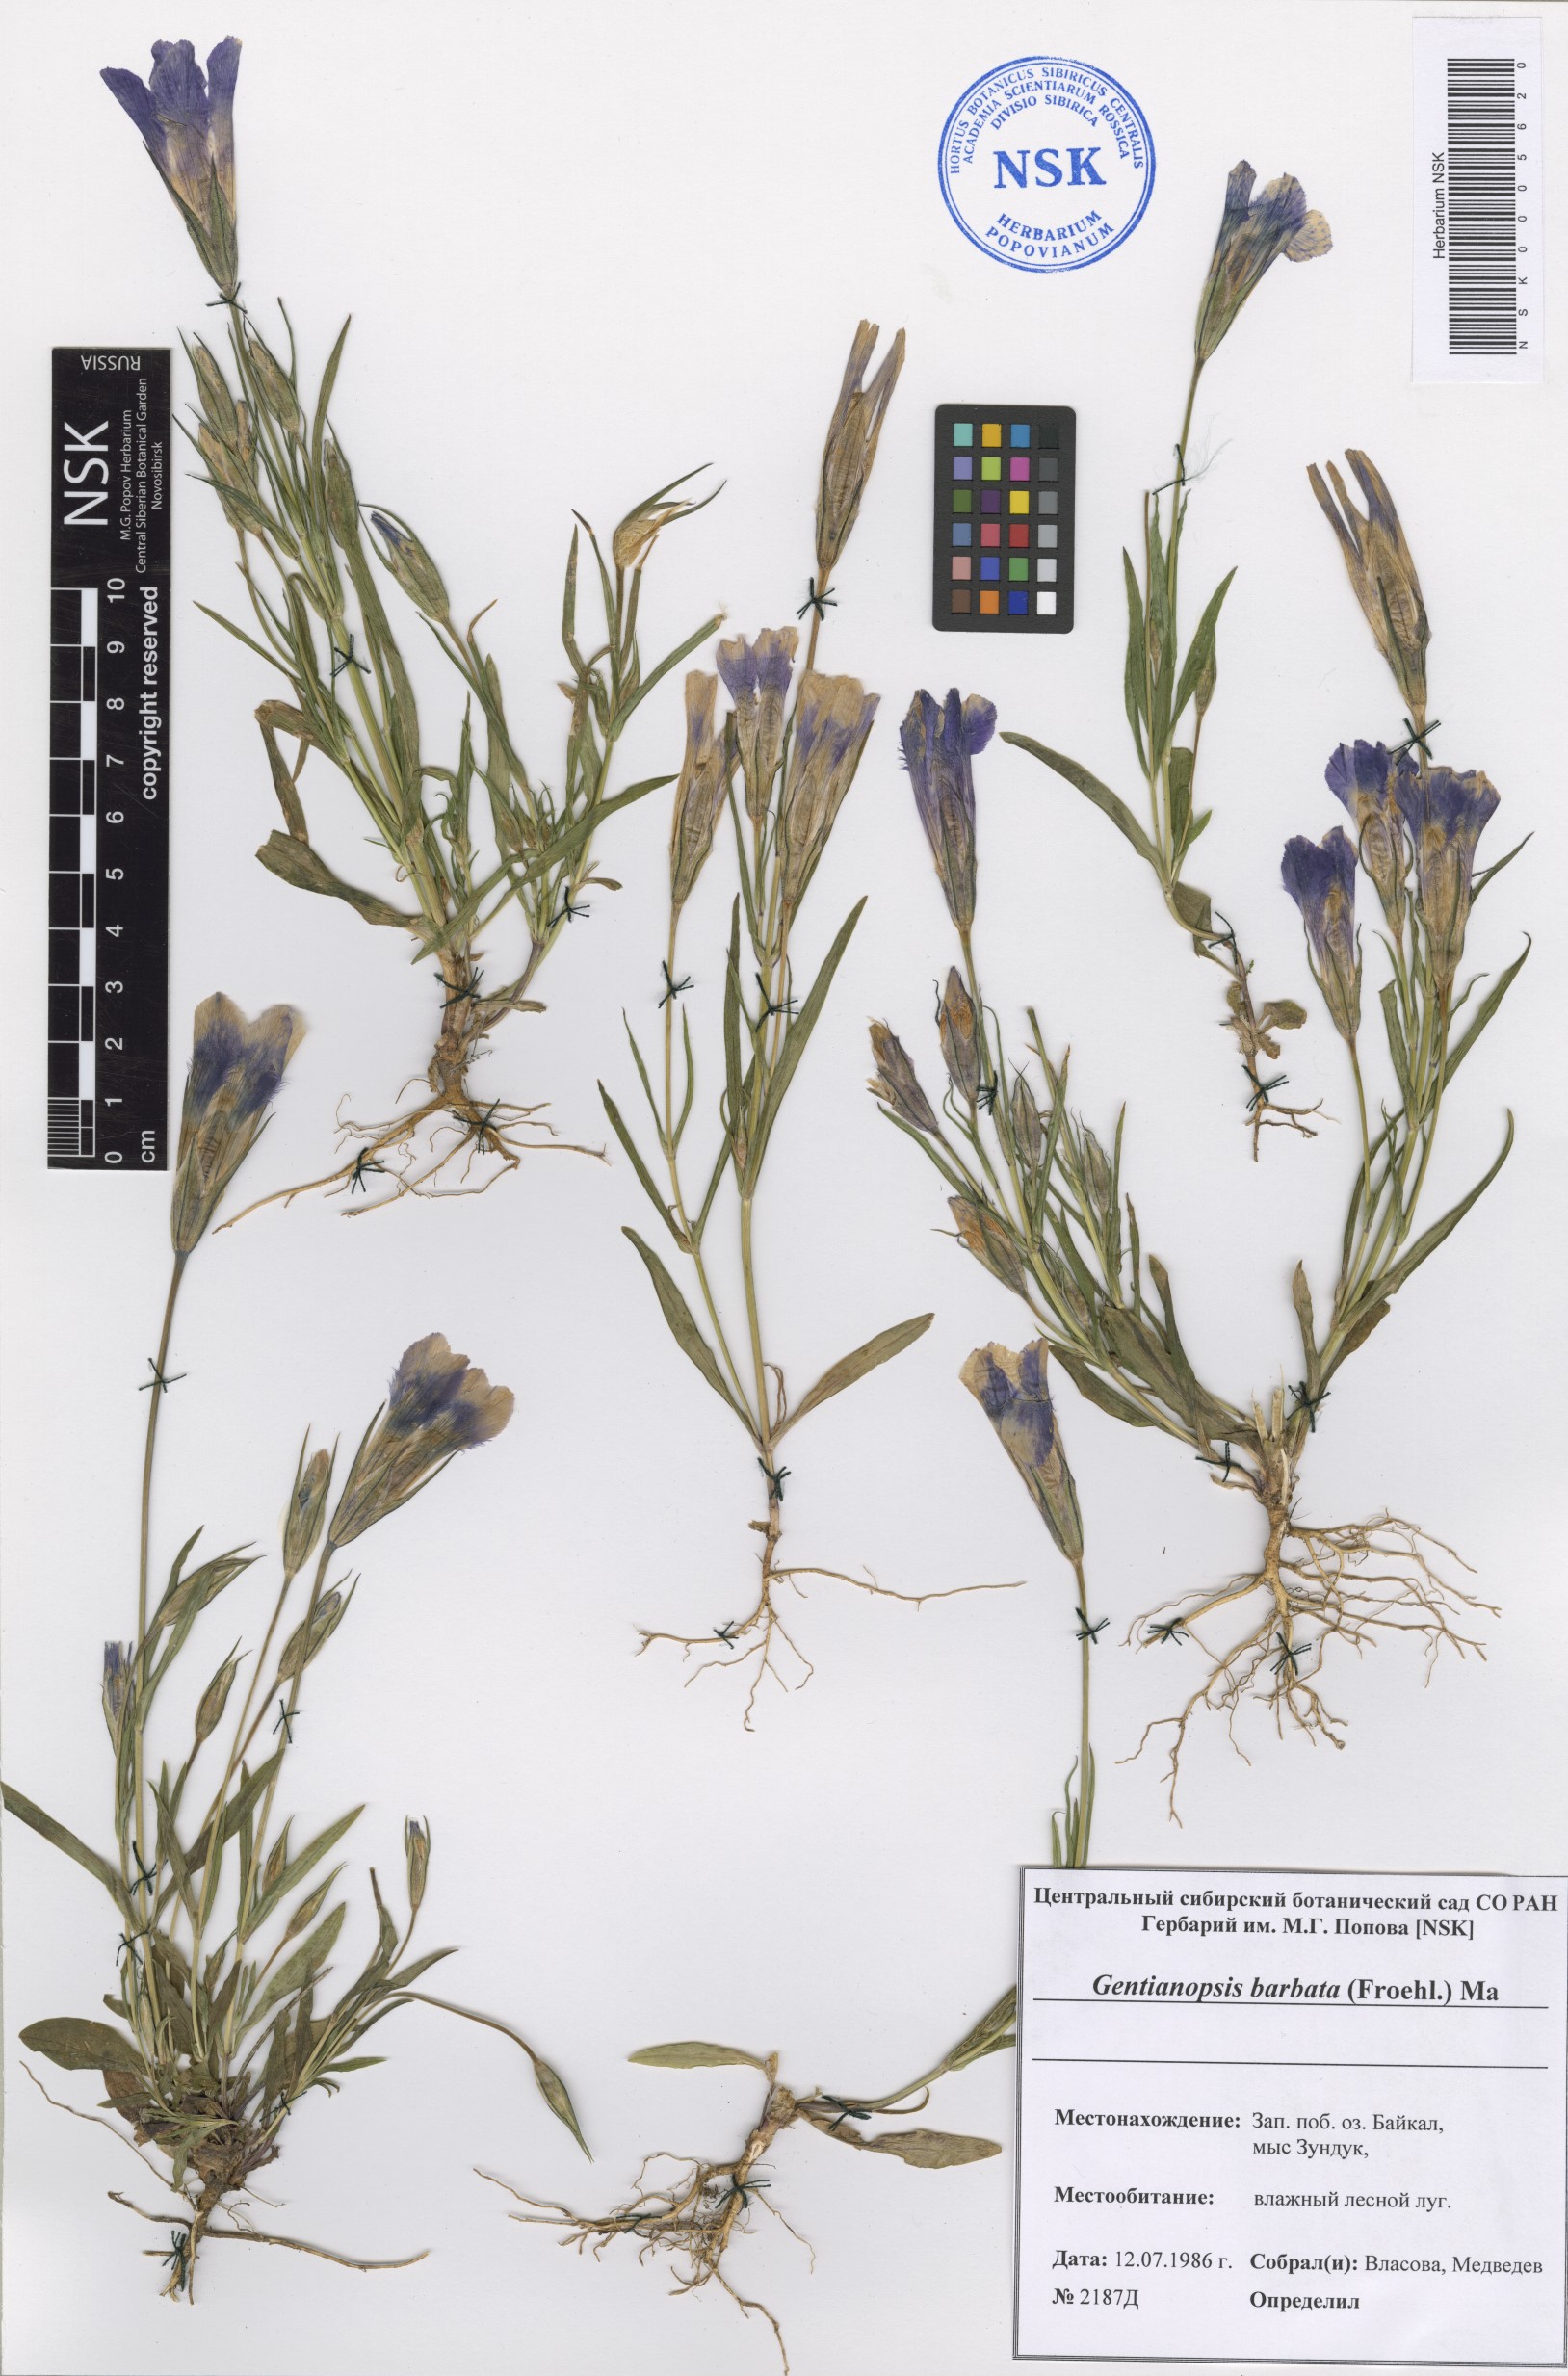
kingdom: Plantae
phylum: Tracheophyta
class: Magnoliopsida
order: Gentianales
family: Gentianaceae
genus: Gentianopsis
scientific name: Gentianopsis barbata
